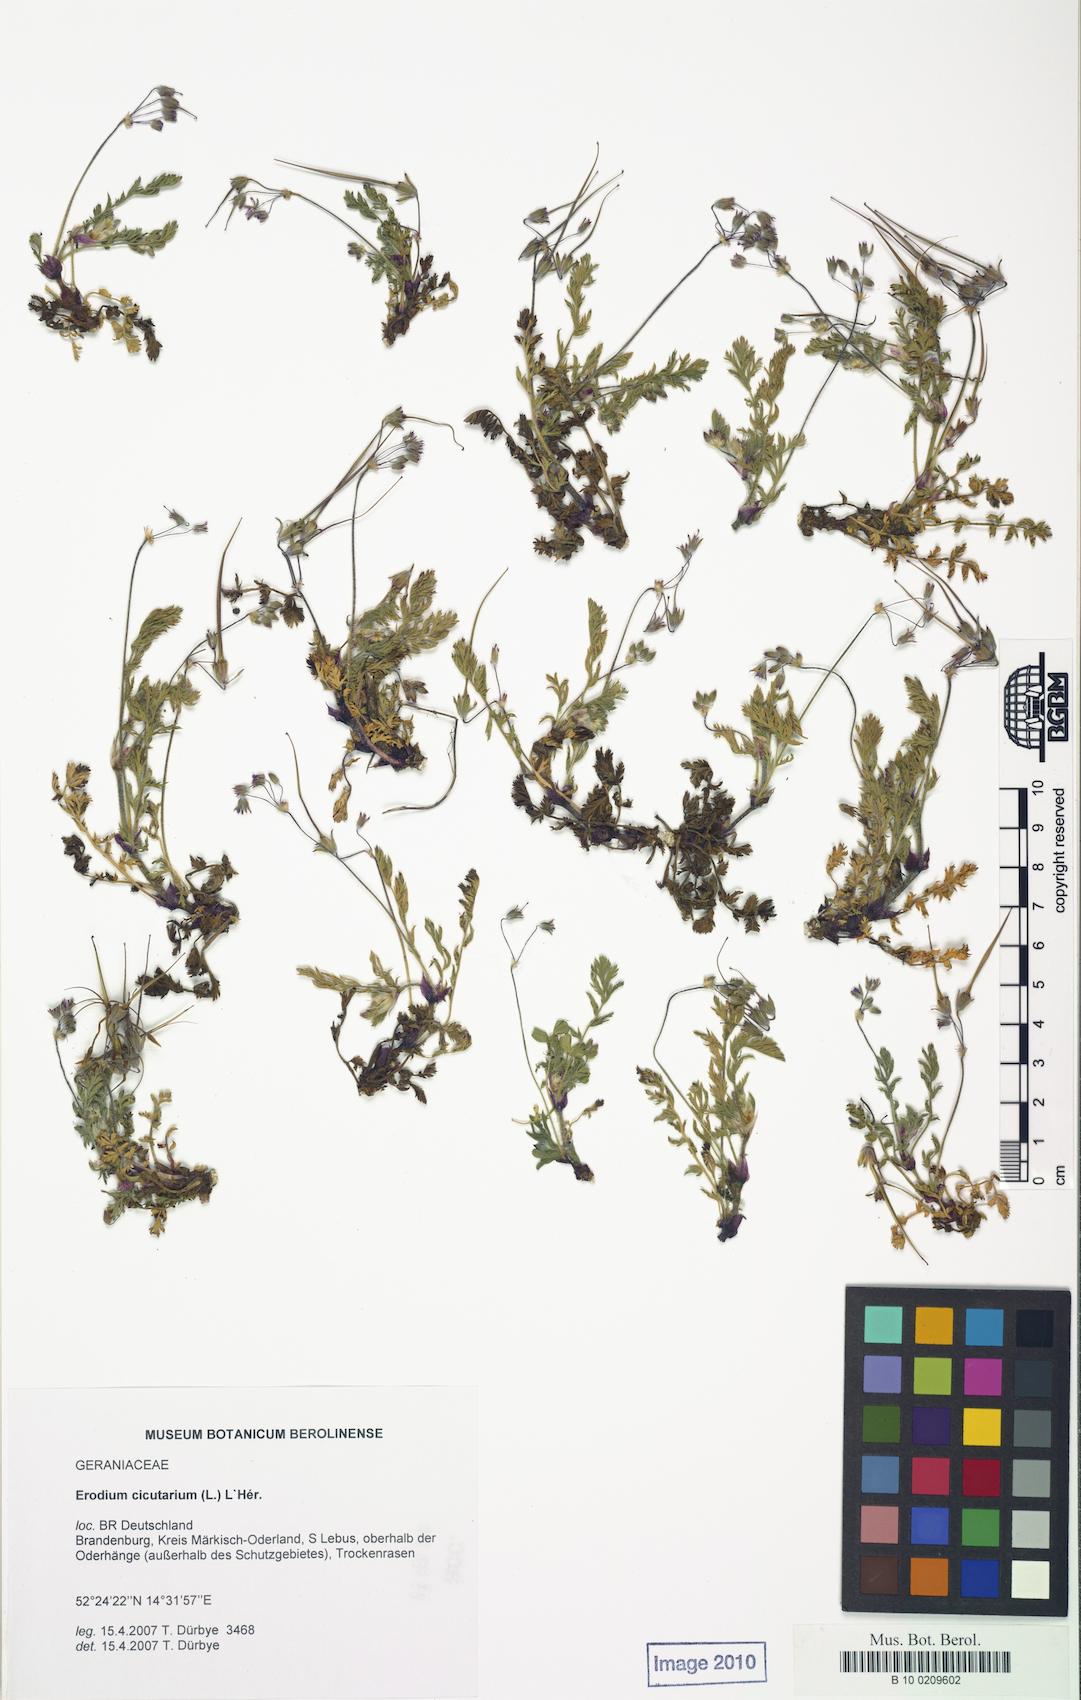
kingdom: Plantae
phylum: Tracheophyta
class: Magnoliopsida
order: Geraniales
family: Geraniaceae
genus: Erodium
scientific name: Erodium cicutarium
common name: Common stork's-bill
